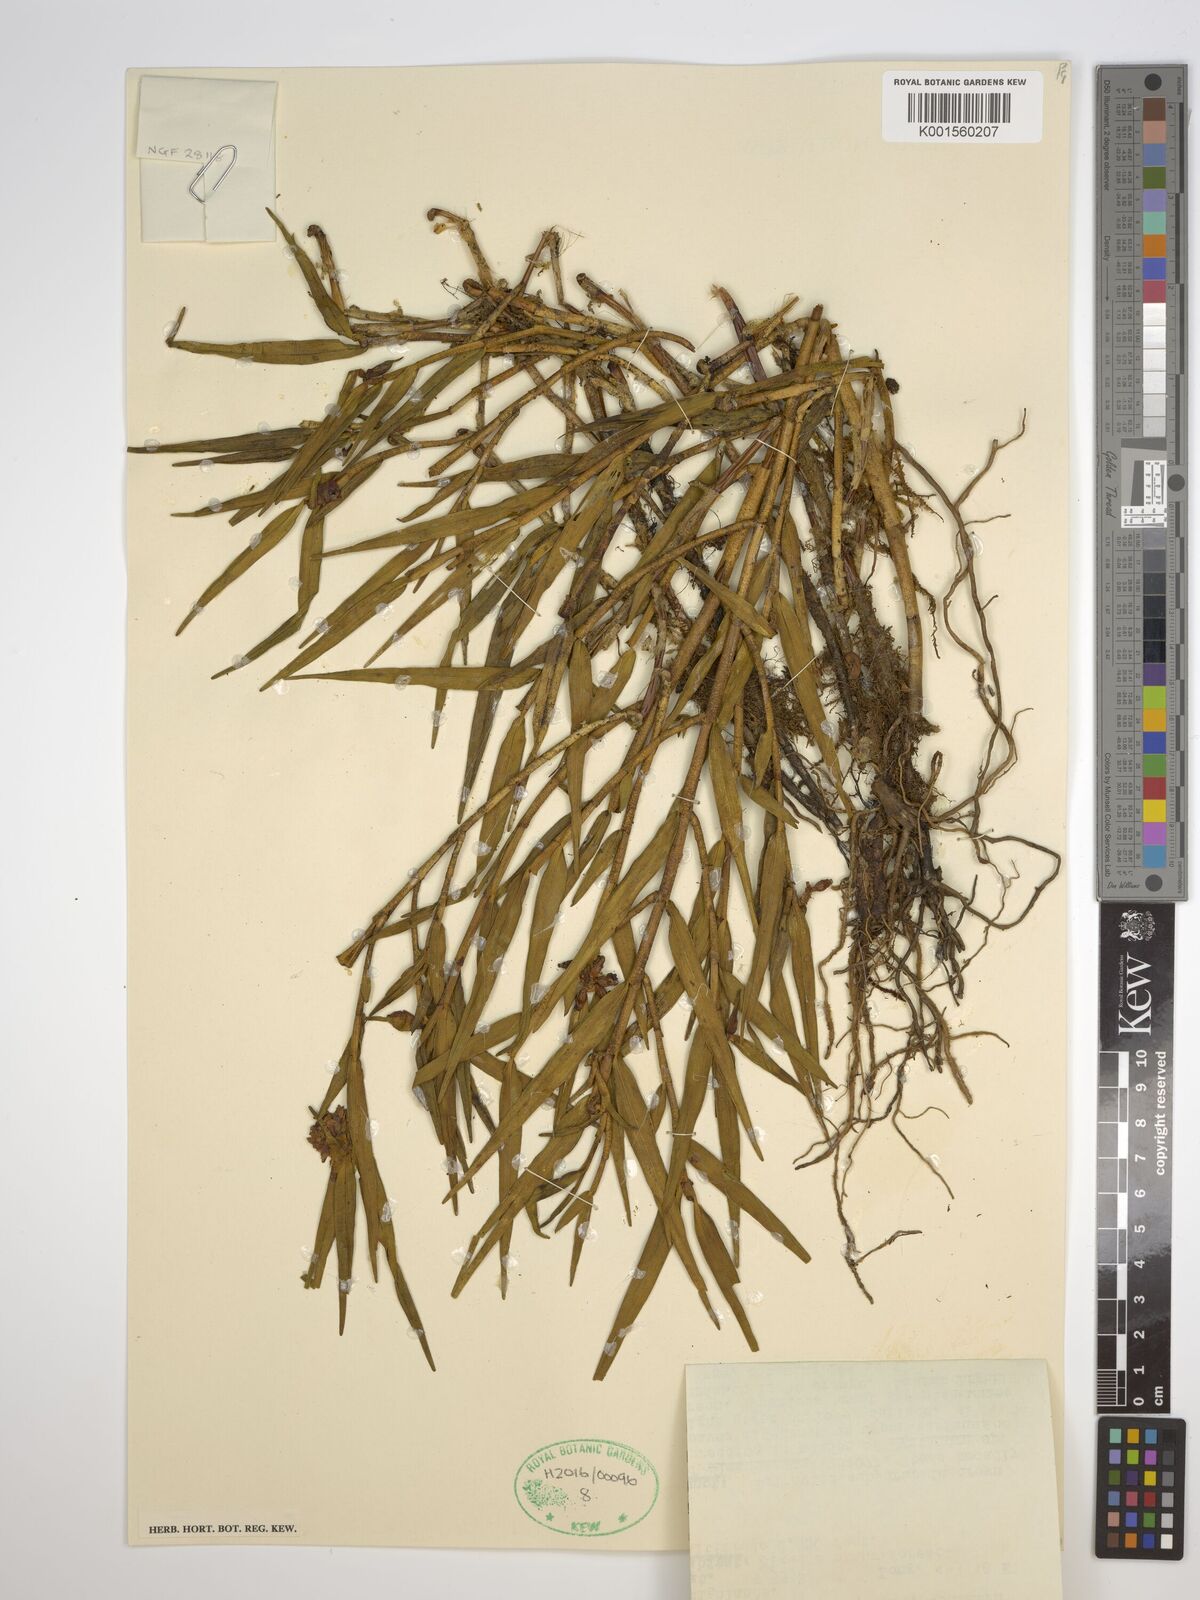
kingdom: Plantae
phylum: Tracheophyta
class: Liliopsida
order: Asparagales
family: Orchidaceae
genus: Glomera
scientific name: Glomera
